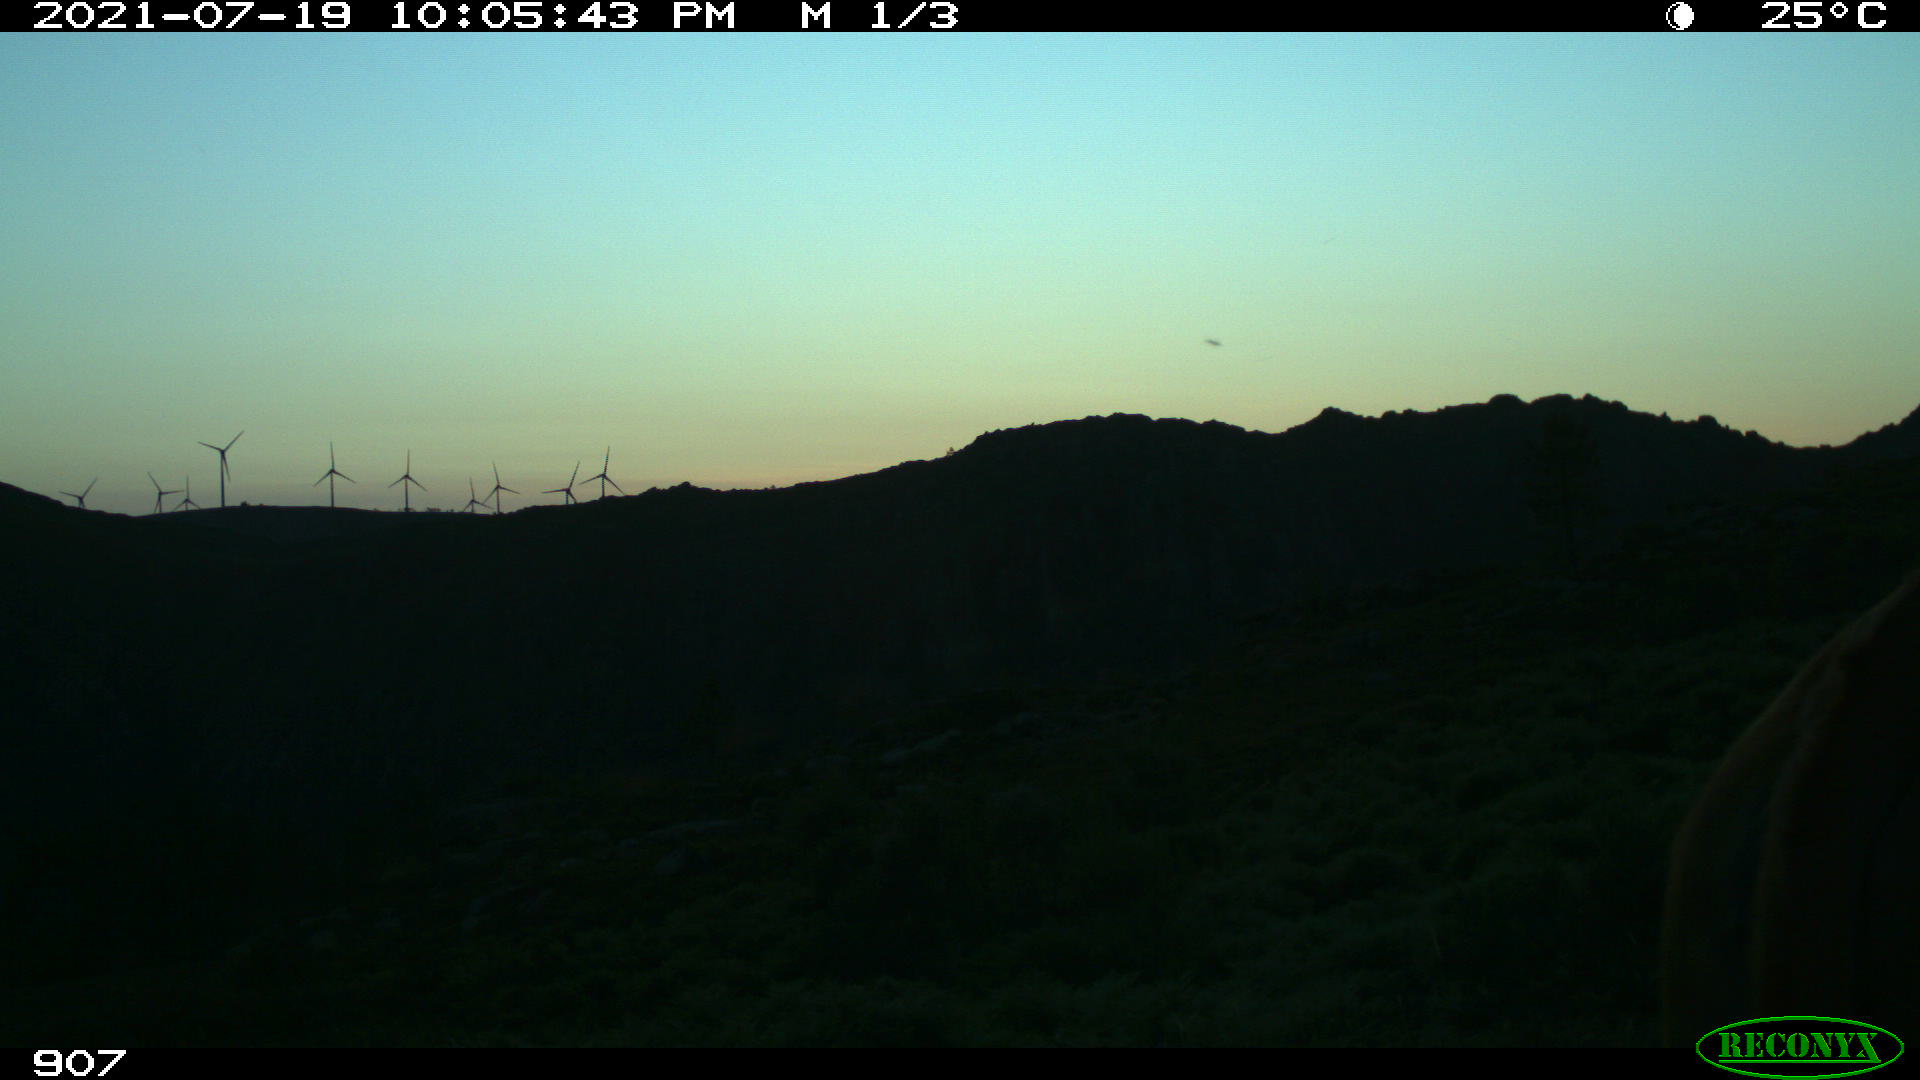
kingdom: Animalia
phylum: Chordata
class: Mammalia
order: Artiodactyla
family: Bovidae
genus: Bos
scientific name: Bos taurus
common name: Domesticated cattle
